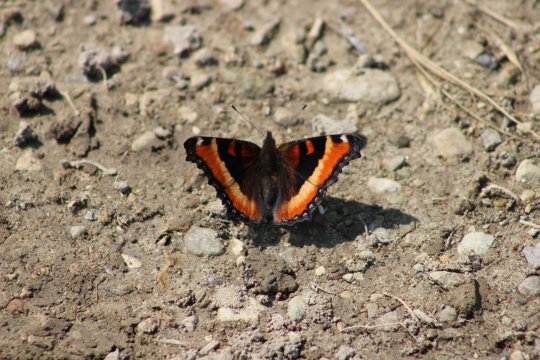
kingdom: Animalia
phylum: Arthropoda
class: Insecta
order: Lepidoptera
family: Nymphalidae
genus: Aglais
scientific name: Aglais milberti
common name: Milbert's Tortoiseshell
